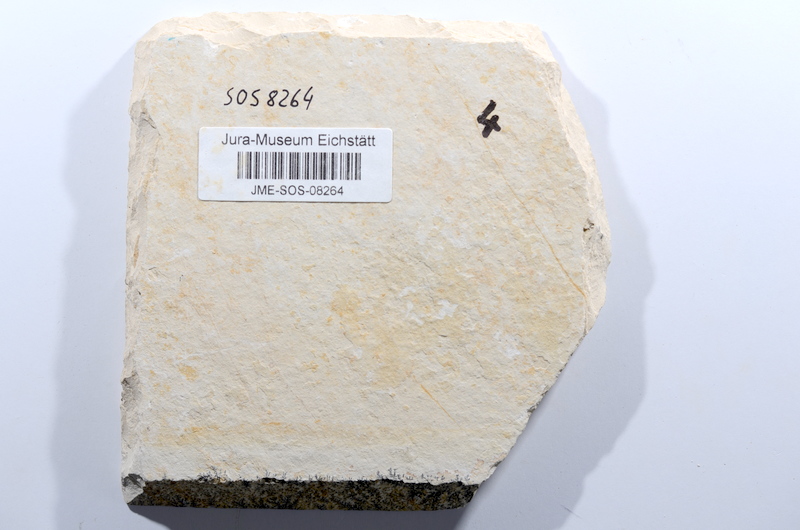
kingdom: Animalia
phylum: Chordata
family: Ascalaboidae
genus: Ascalabos
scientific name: Ascalabos voithii
